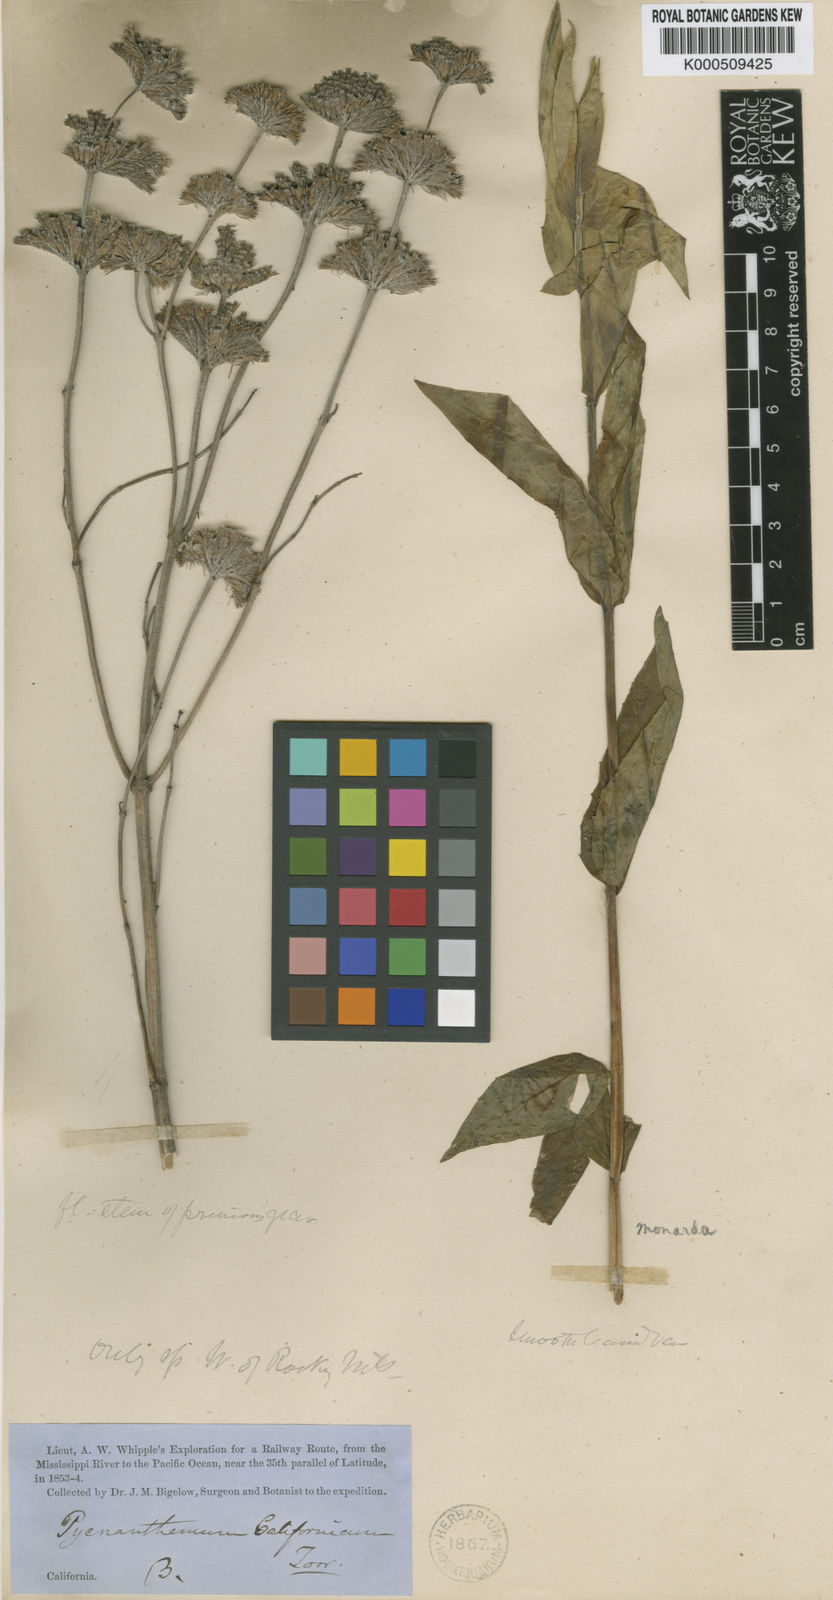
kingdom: Plantae
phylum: Tracheophyta
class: Magnoliopsida
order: Lamiales
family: Lamiaceae
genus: Pycnanthemum
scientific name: Pycnanthemum californicum
